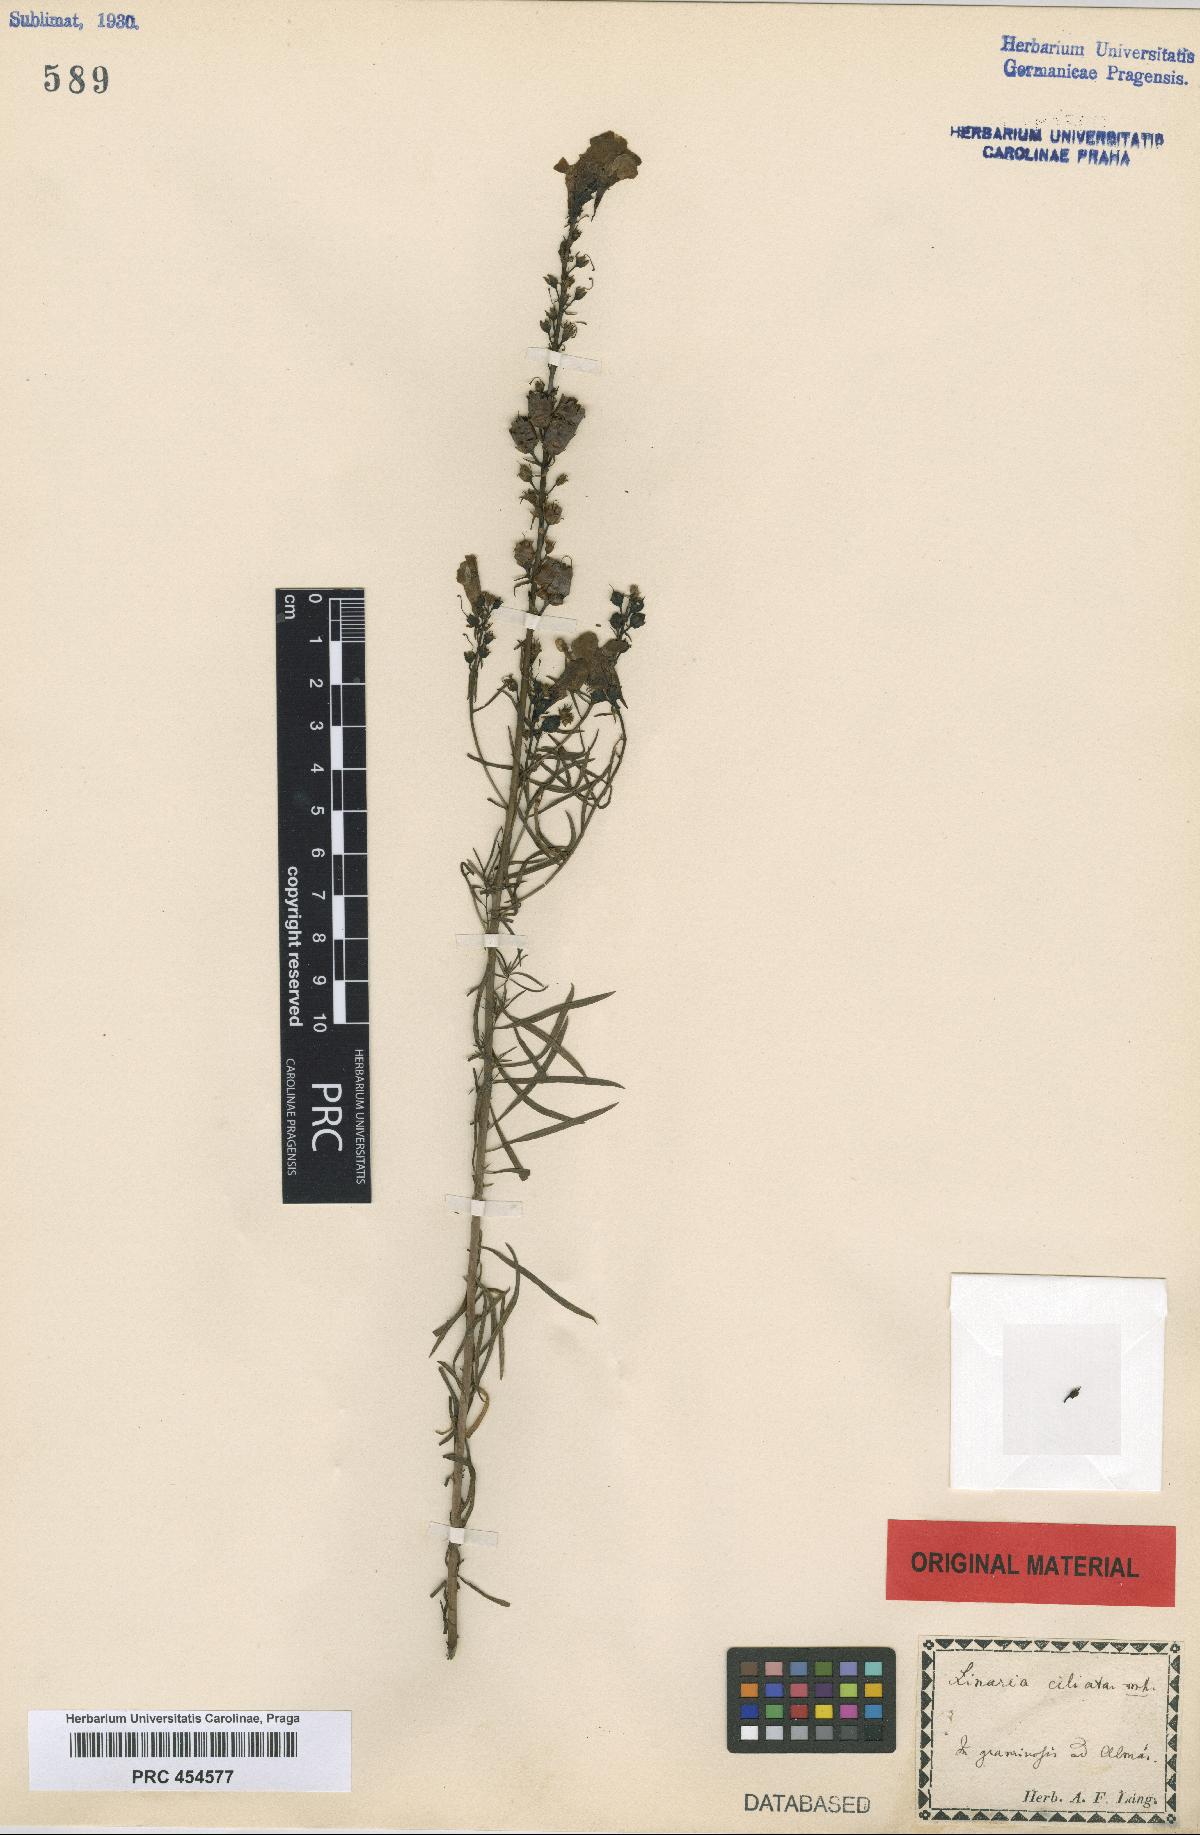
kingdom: Plantae
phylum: Tracheophyta
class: Magnoliopsida
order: Lamiales
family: Plantaginaceae
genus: Linaria
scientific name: Linaria vulgaris
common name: Butter and eggs
